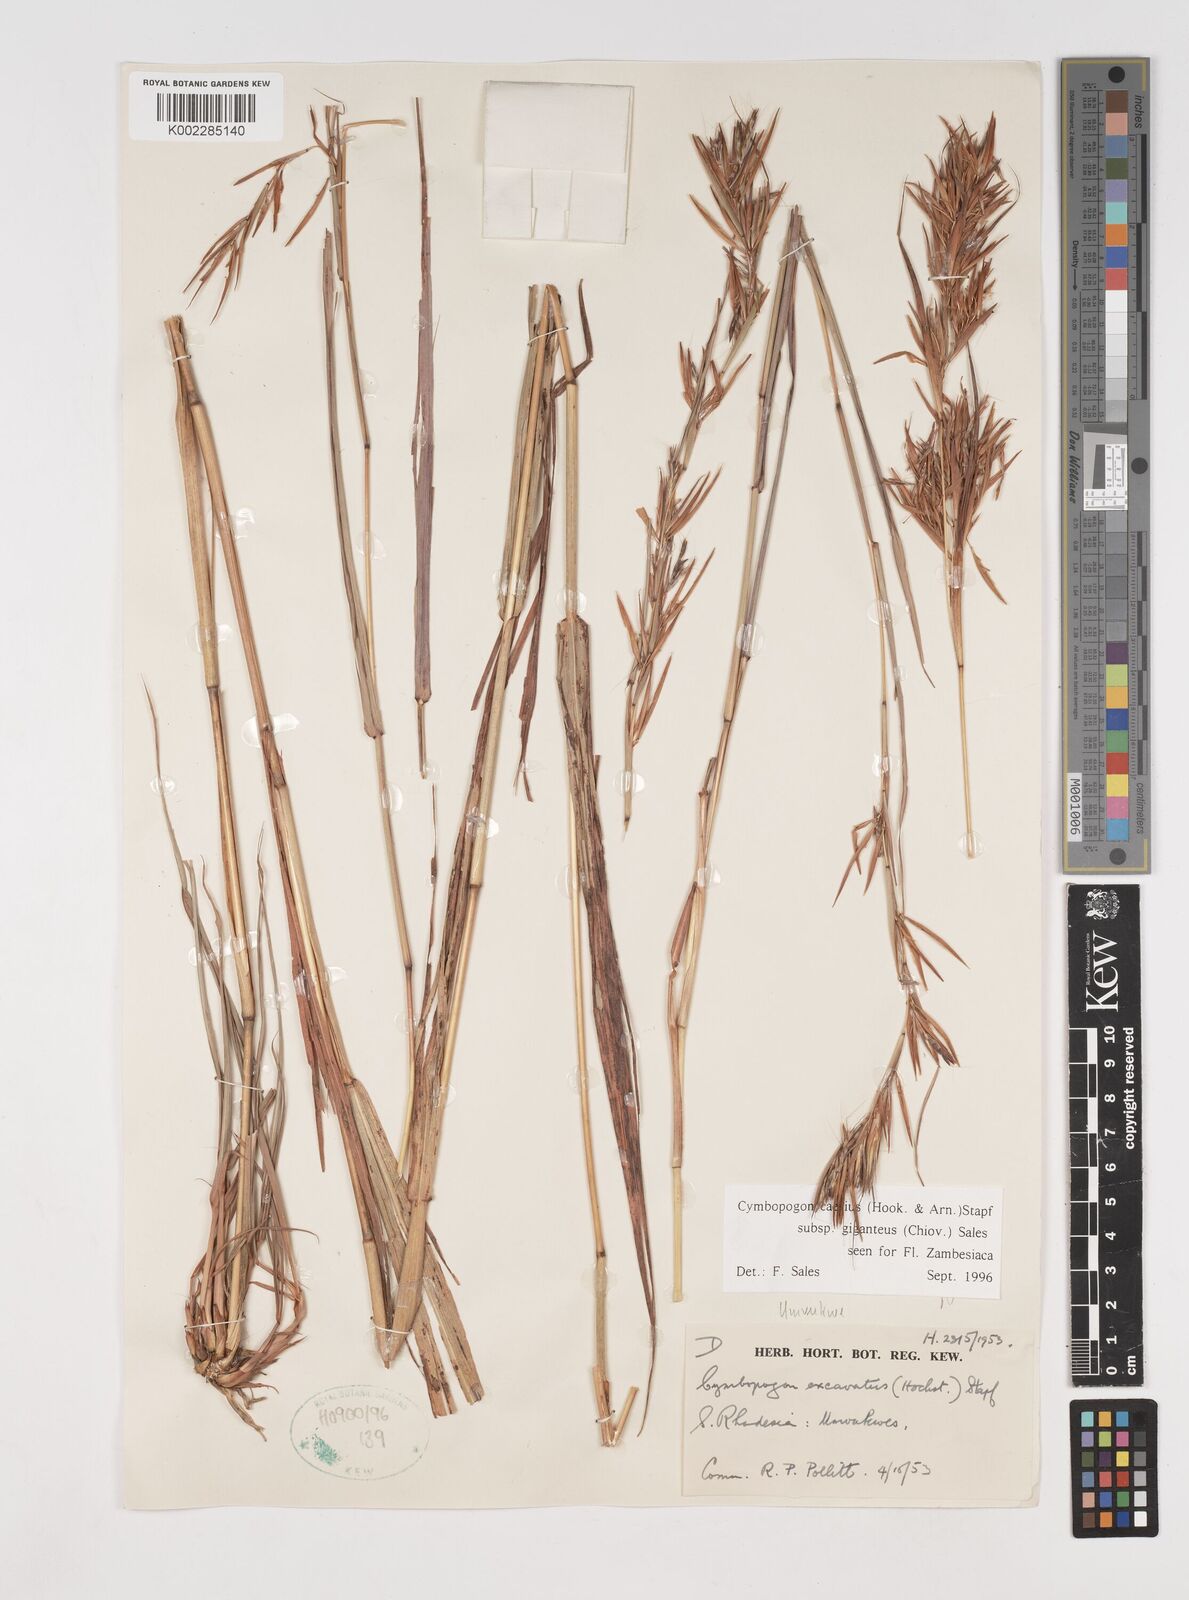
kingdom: Plantae
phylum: Tracheophyta
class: Liliopsida
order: Poales
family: Poaceae
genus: Cymbopogon
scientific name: Cymbopogon giganteus
